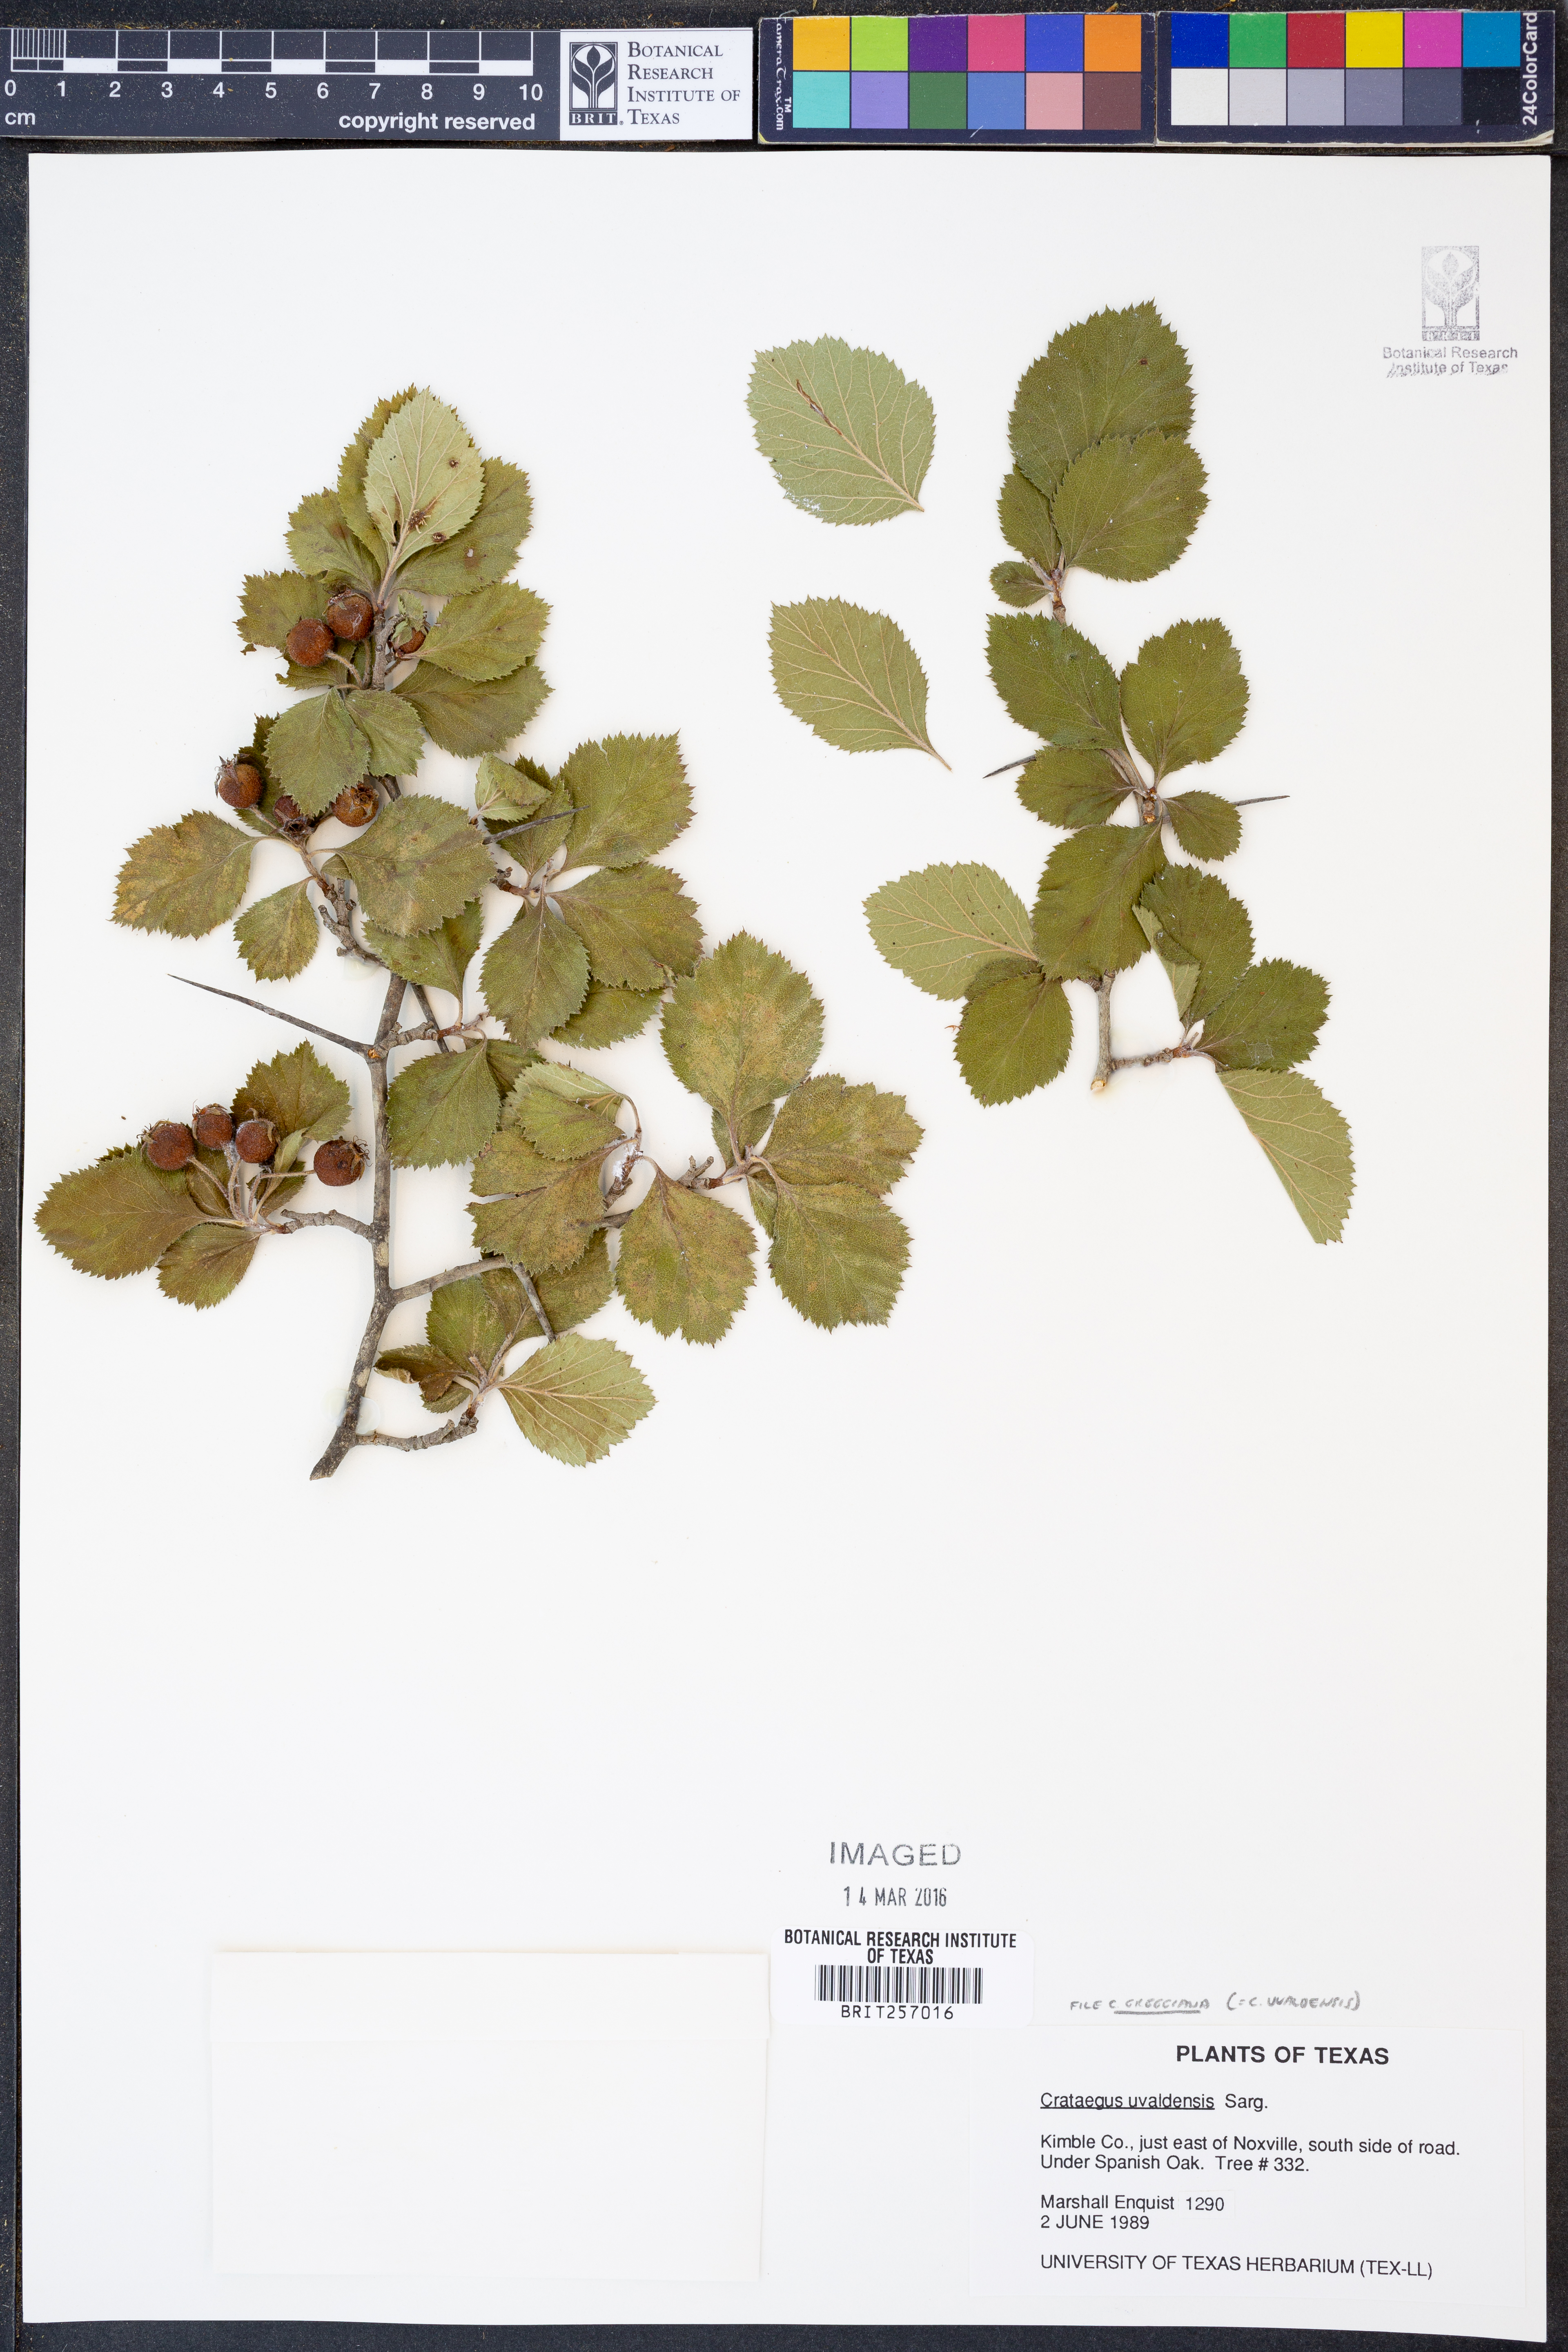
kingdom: Plantae
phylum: Tracheophyta
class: Magnoliopsida
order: Rosales
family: Rosaceae
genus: Crataegus
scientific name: Crataegus greggiana
